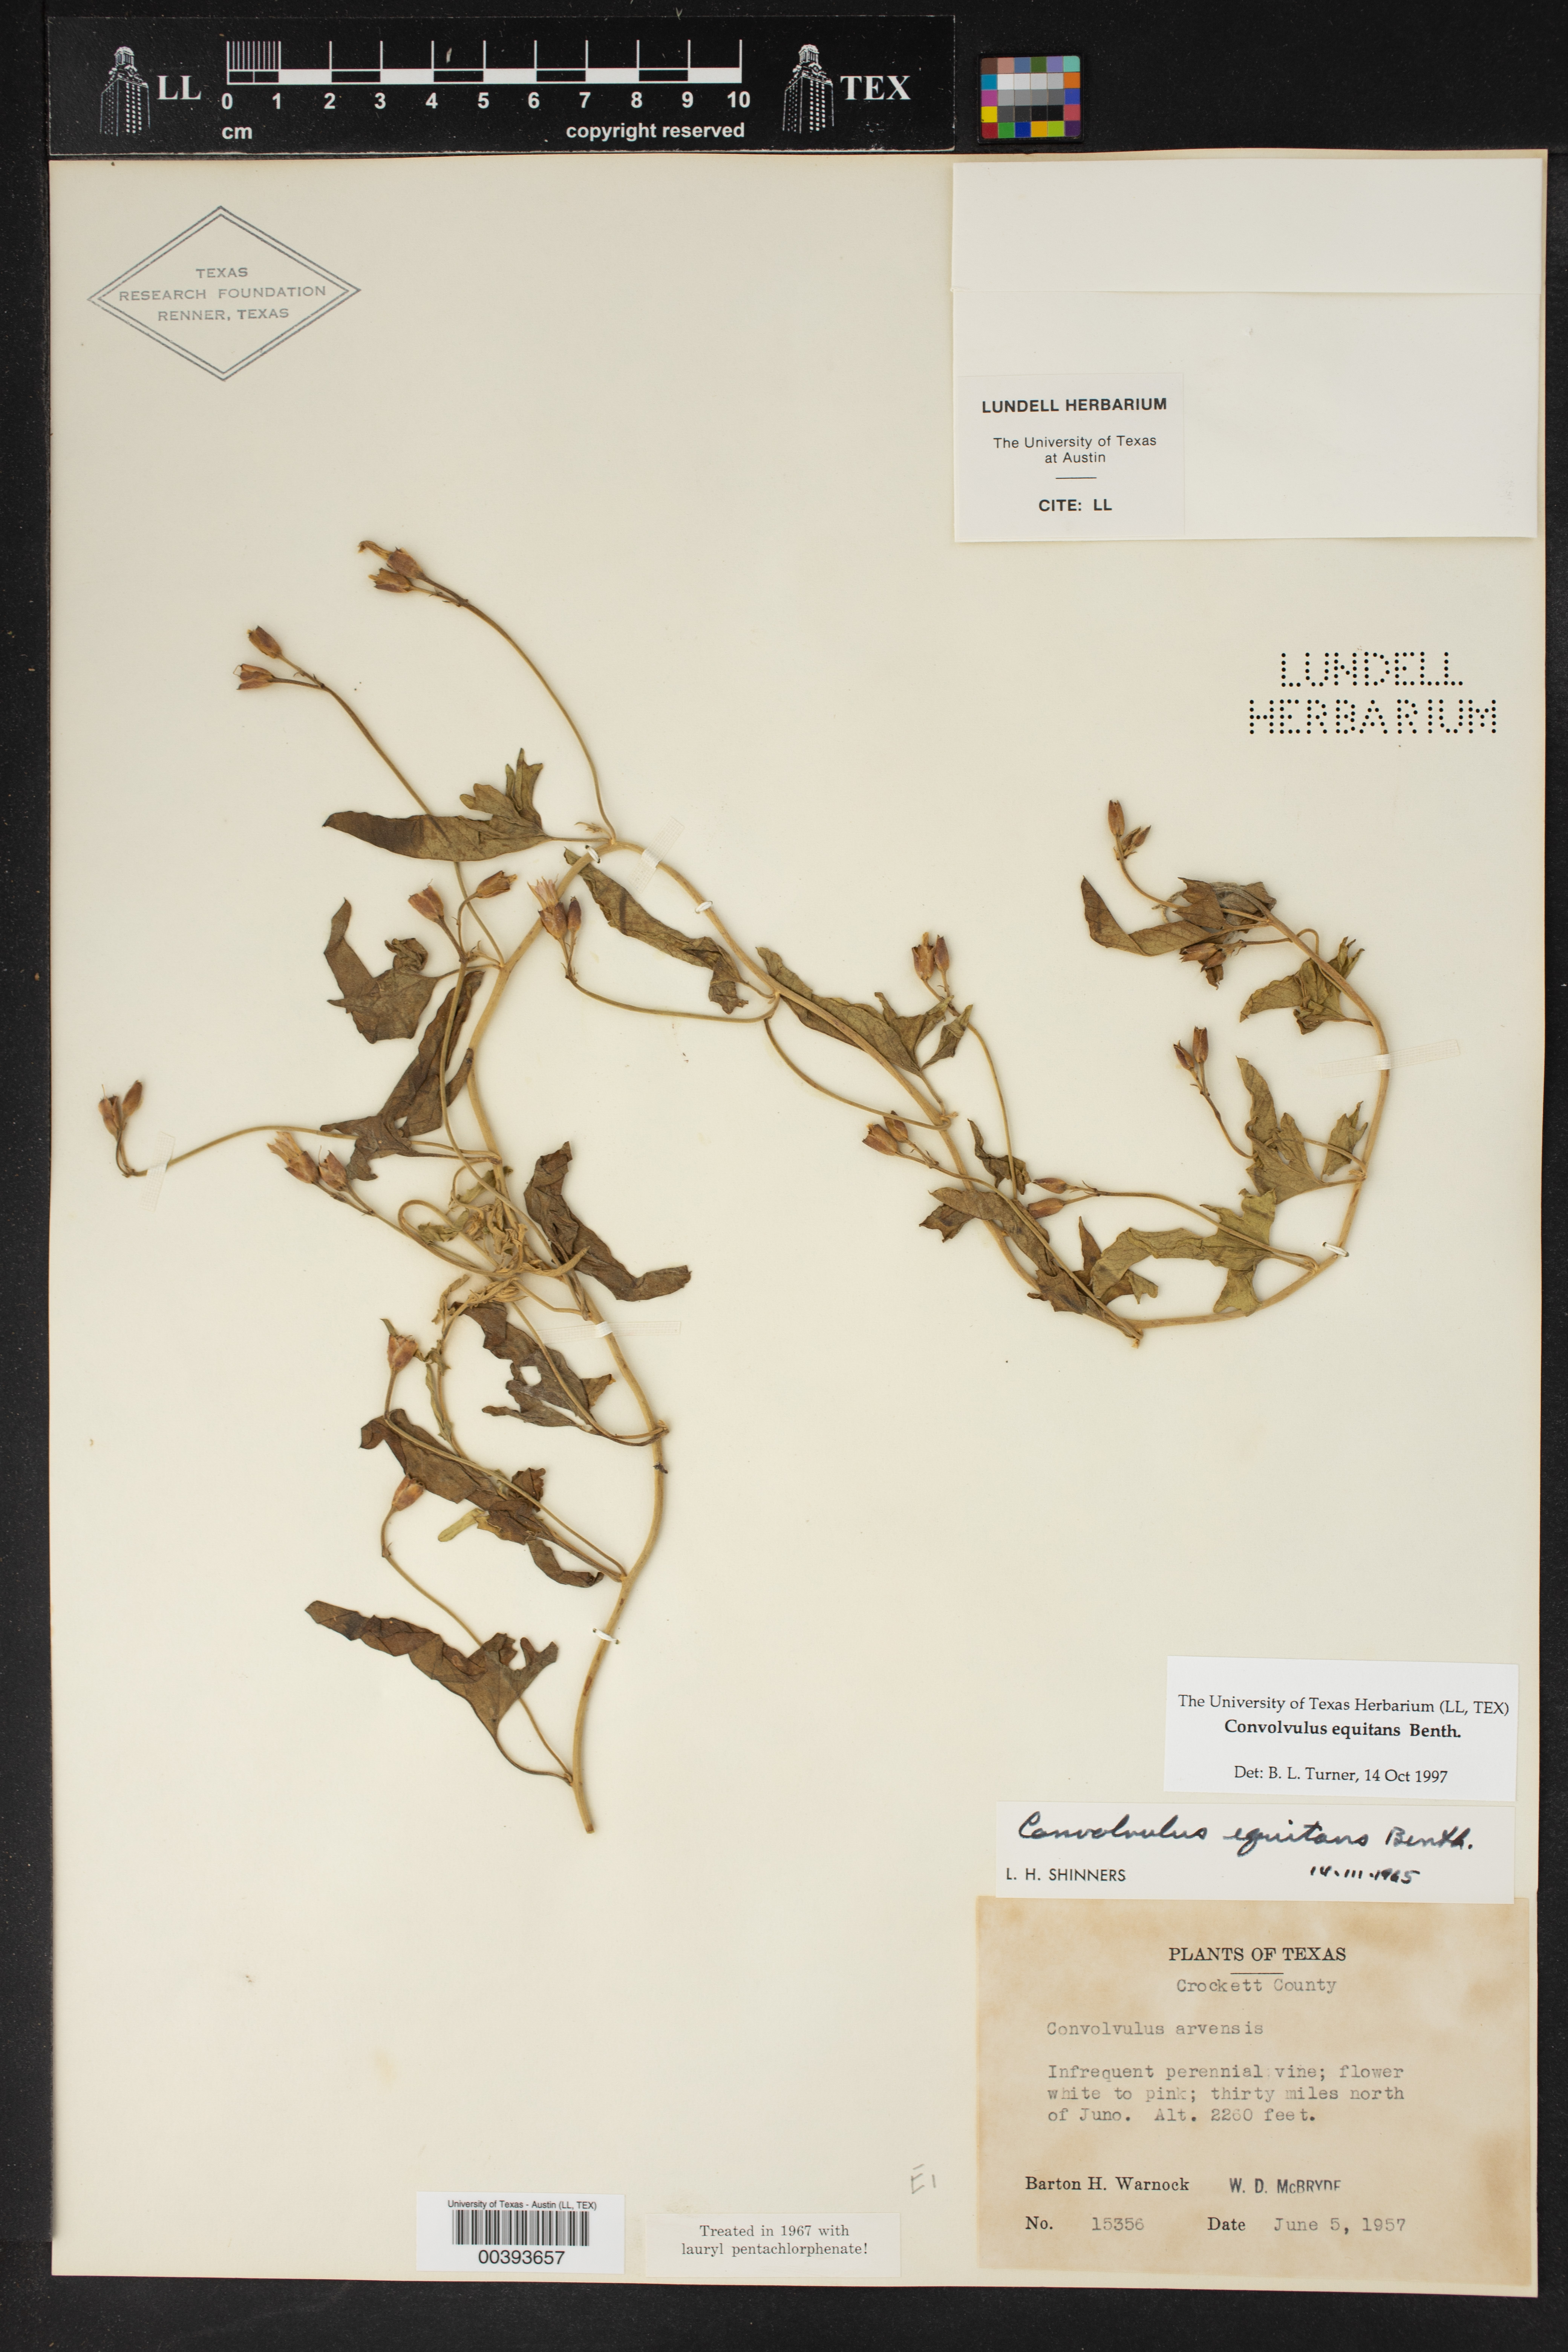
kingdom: Plantae
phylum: Tracheophyta
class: Magnoliopsida
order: Solanales
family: Convolvulaceae
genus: Convolvulus
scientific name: Convolvulus equitans
